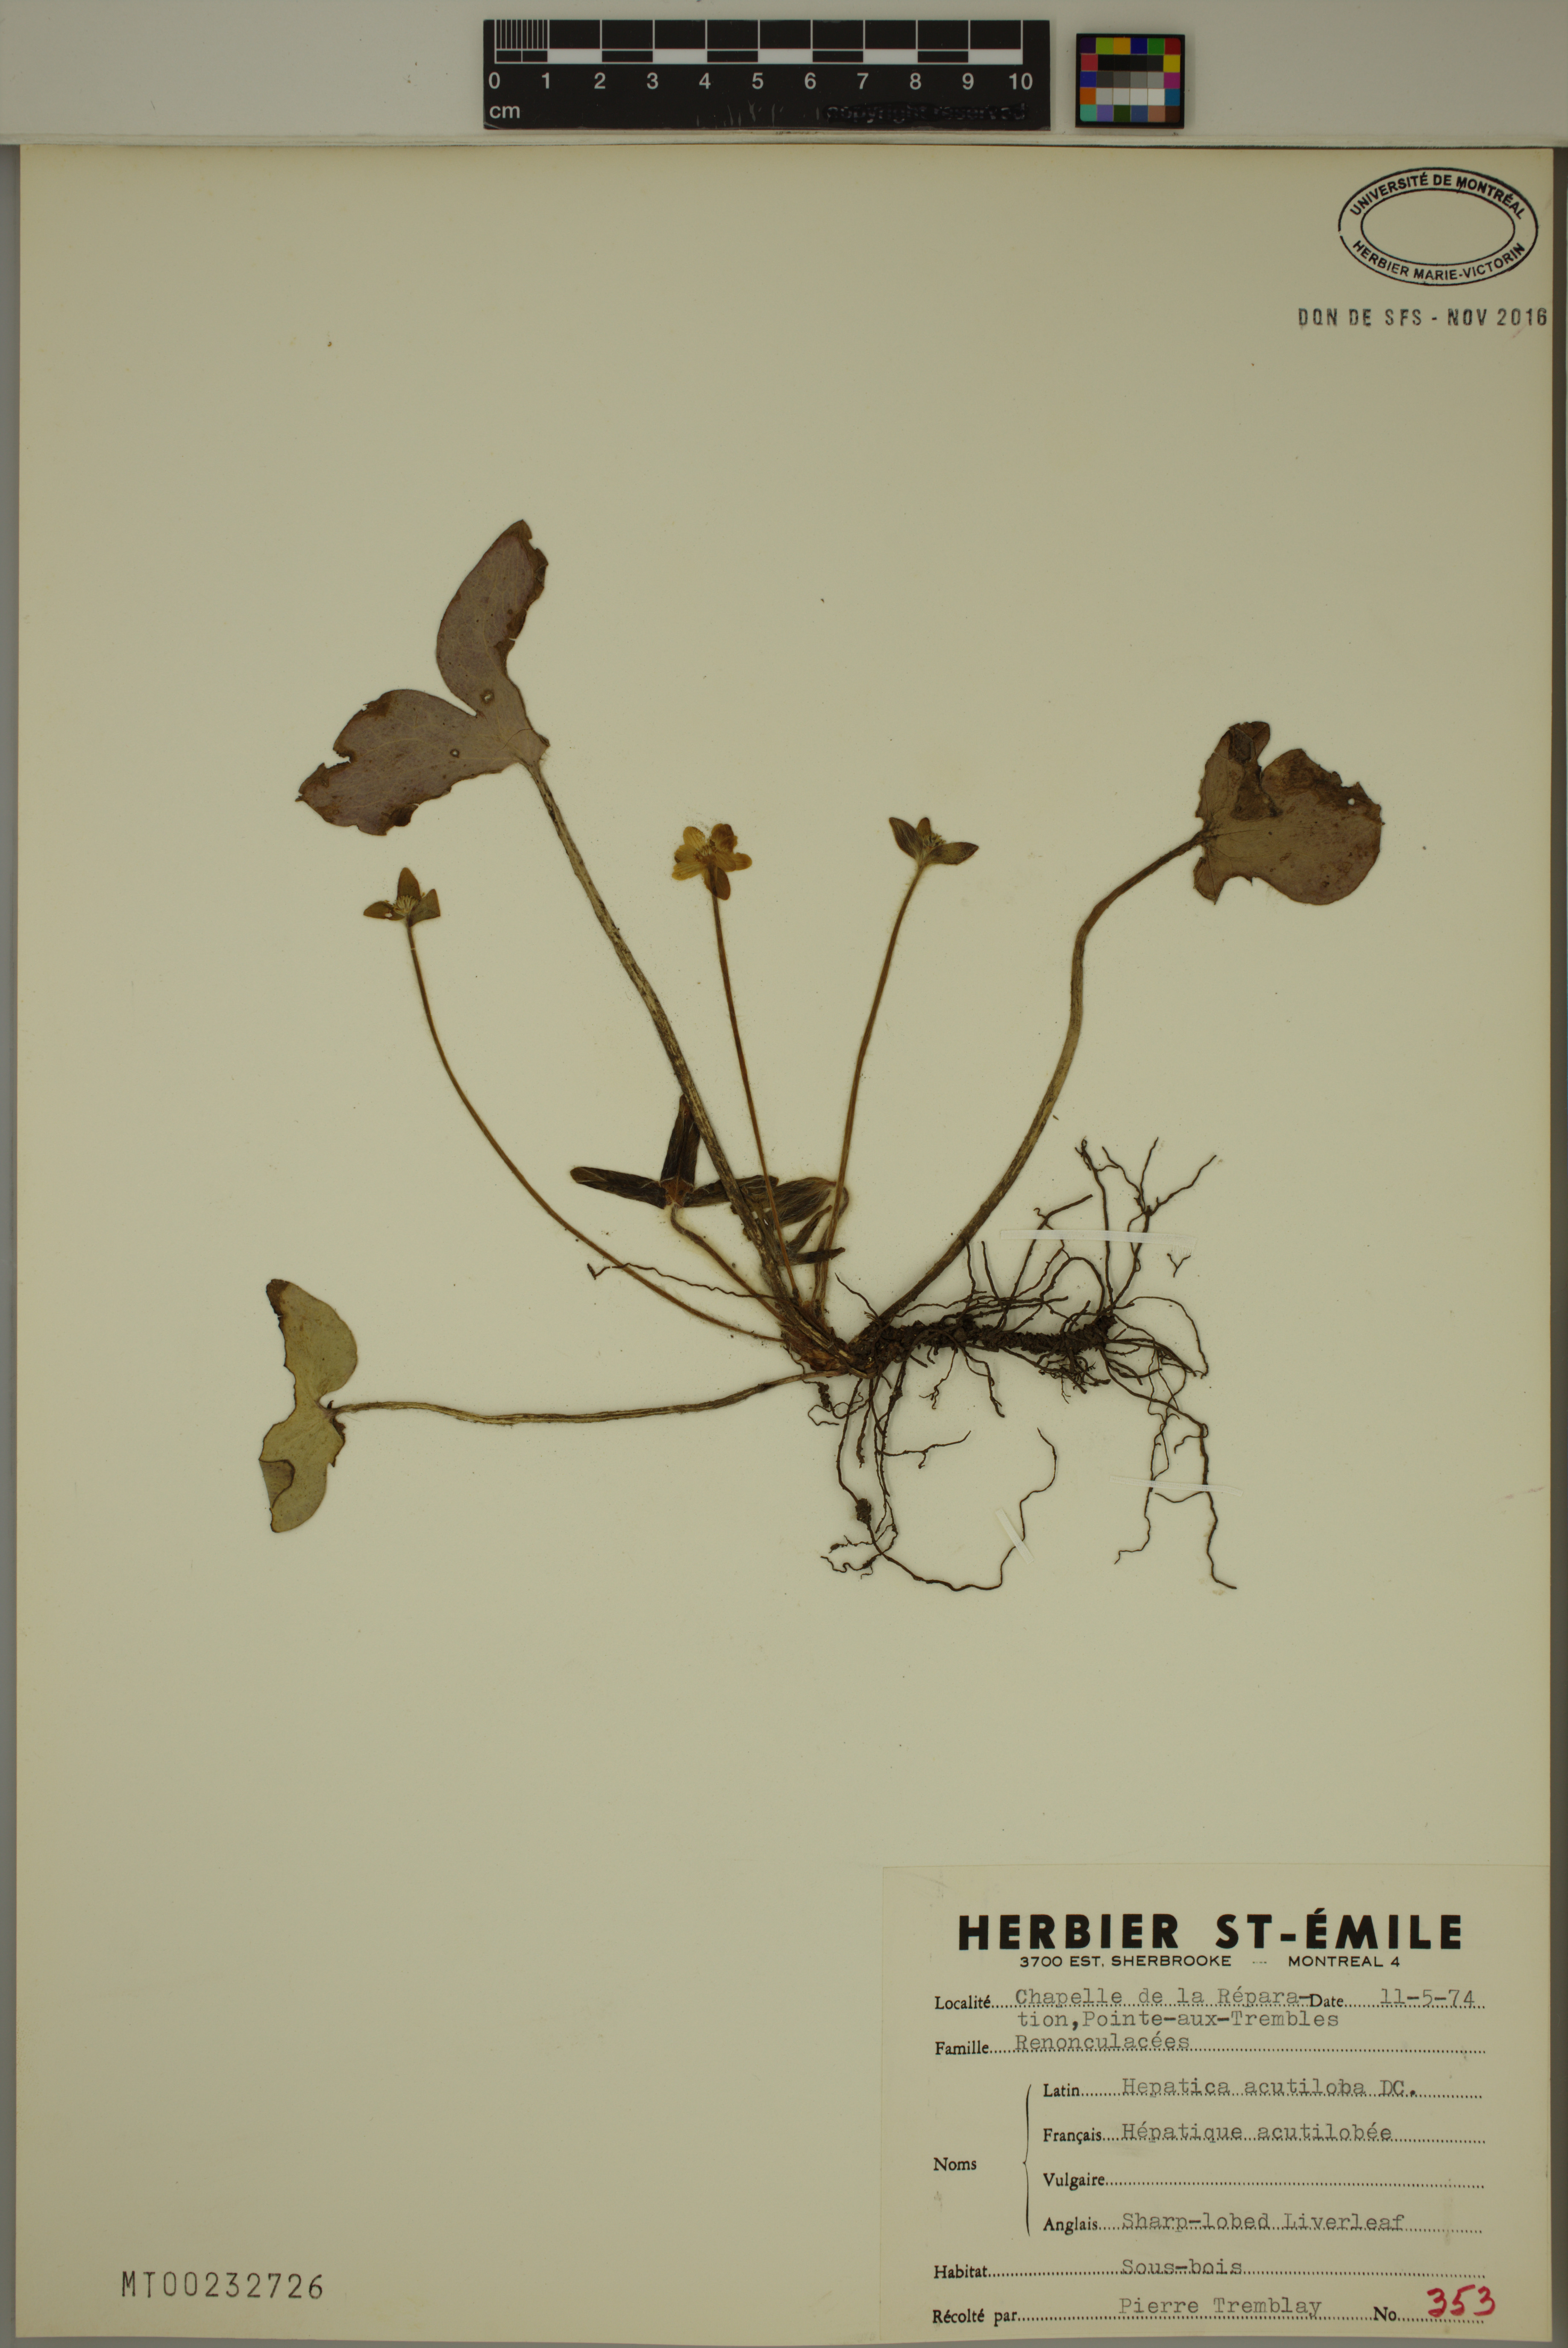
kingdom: Plantae
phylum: Tracheophyta
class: Magnoliopsida
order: Ranunculales
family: Ranunculaceae
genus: Hepatica
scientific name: Hepatica acutiloba
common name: Sharp-lobed hepatica
